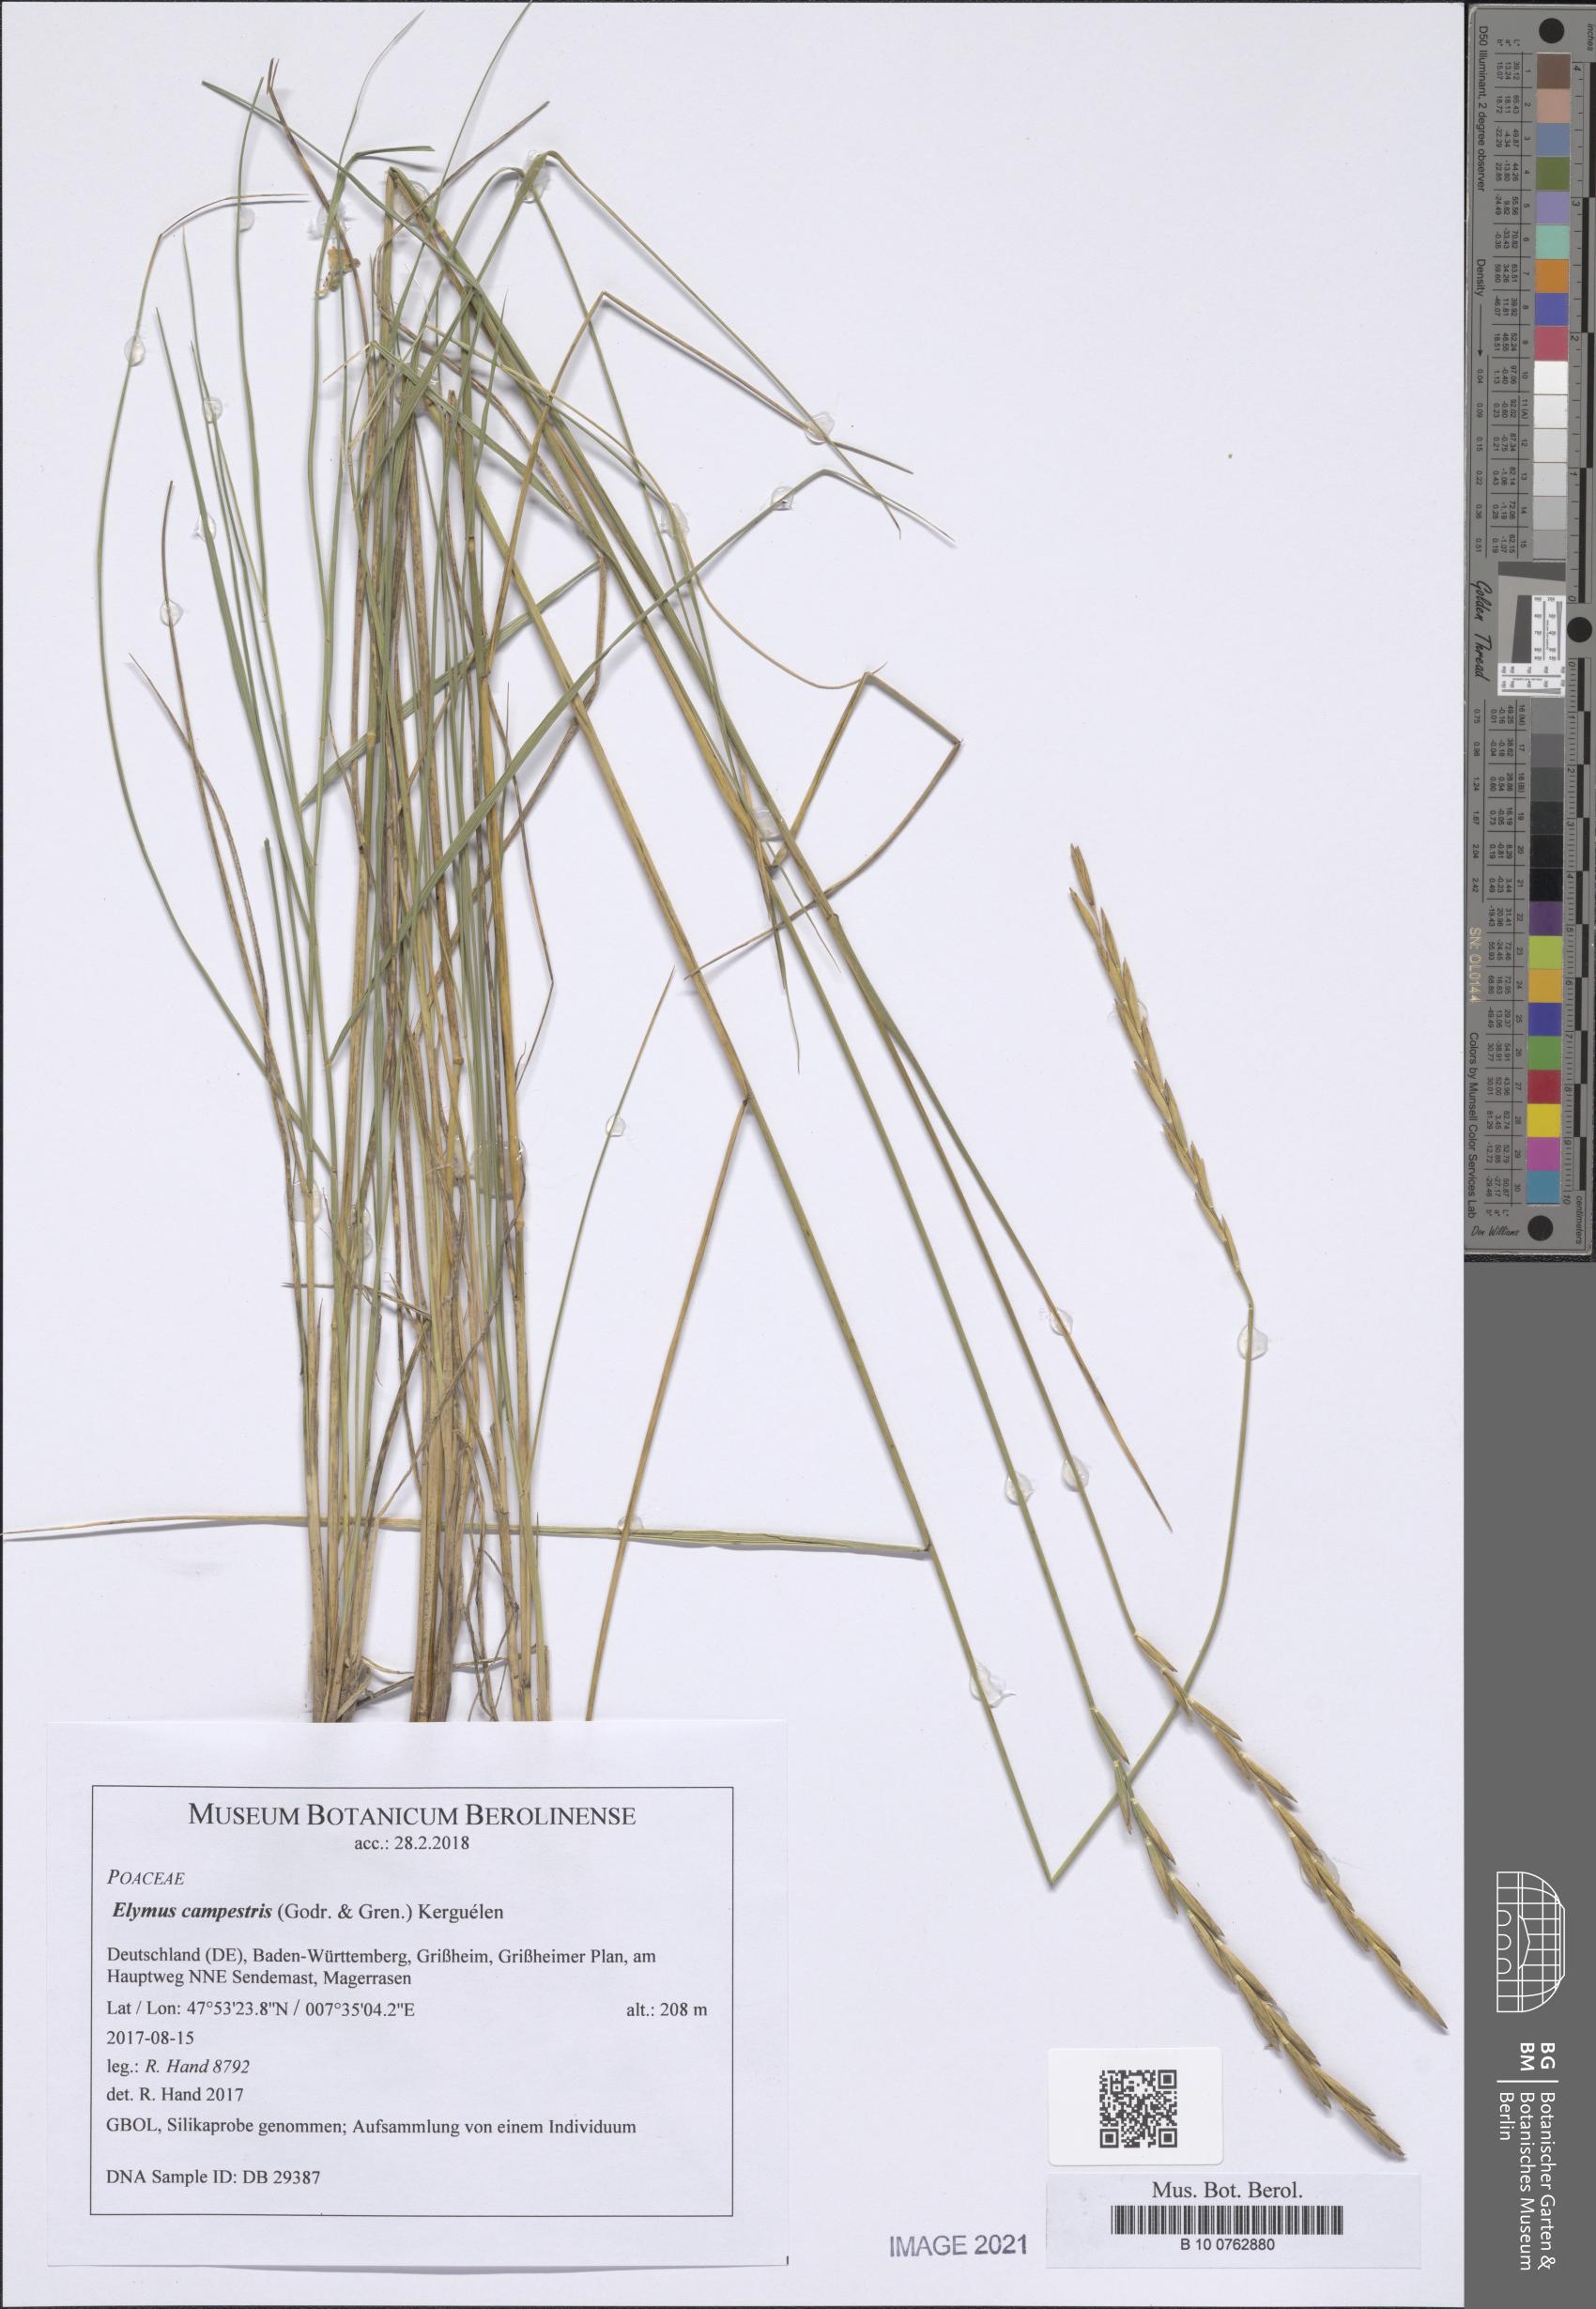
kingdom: Plantae
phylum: Tracheophyta
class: Liliopsida
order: Poales
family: Poaceae
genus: Elymus
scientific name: Elymus pungens
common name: Sea couch
